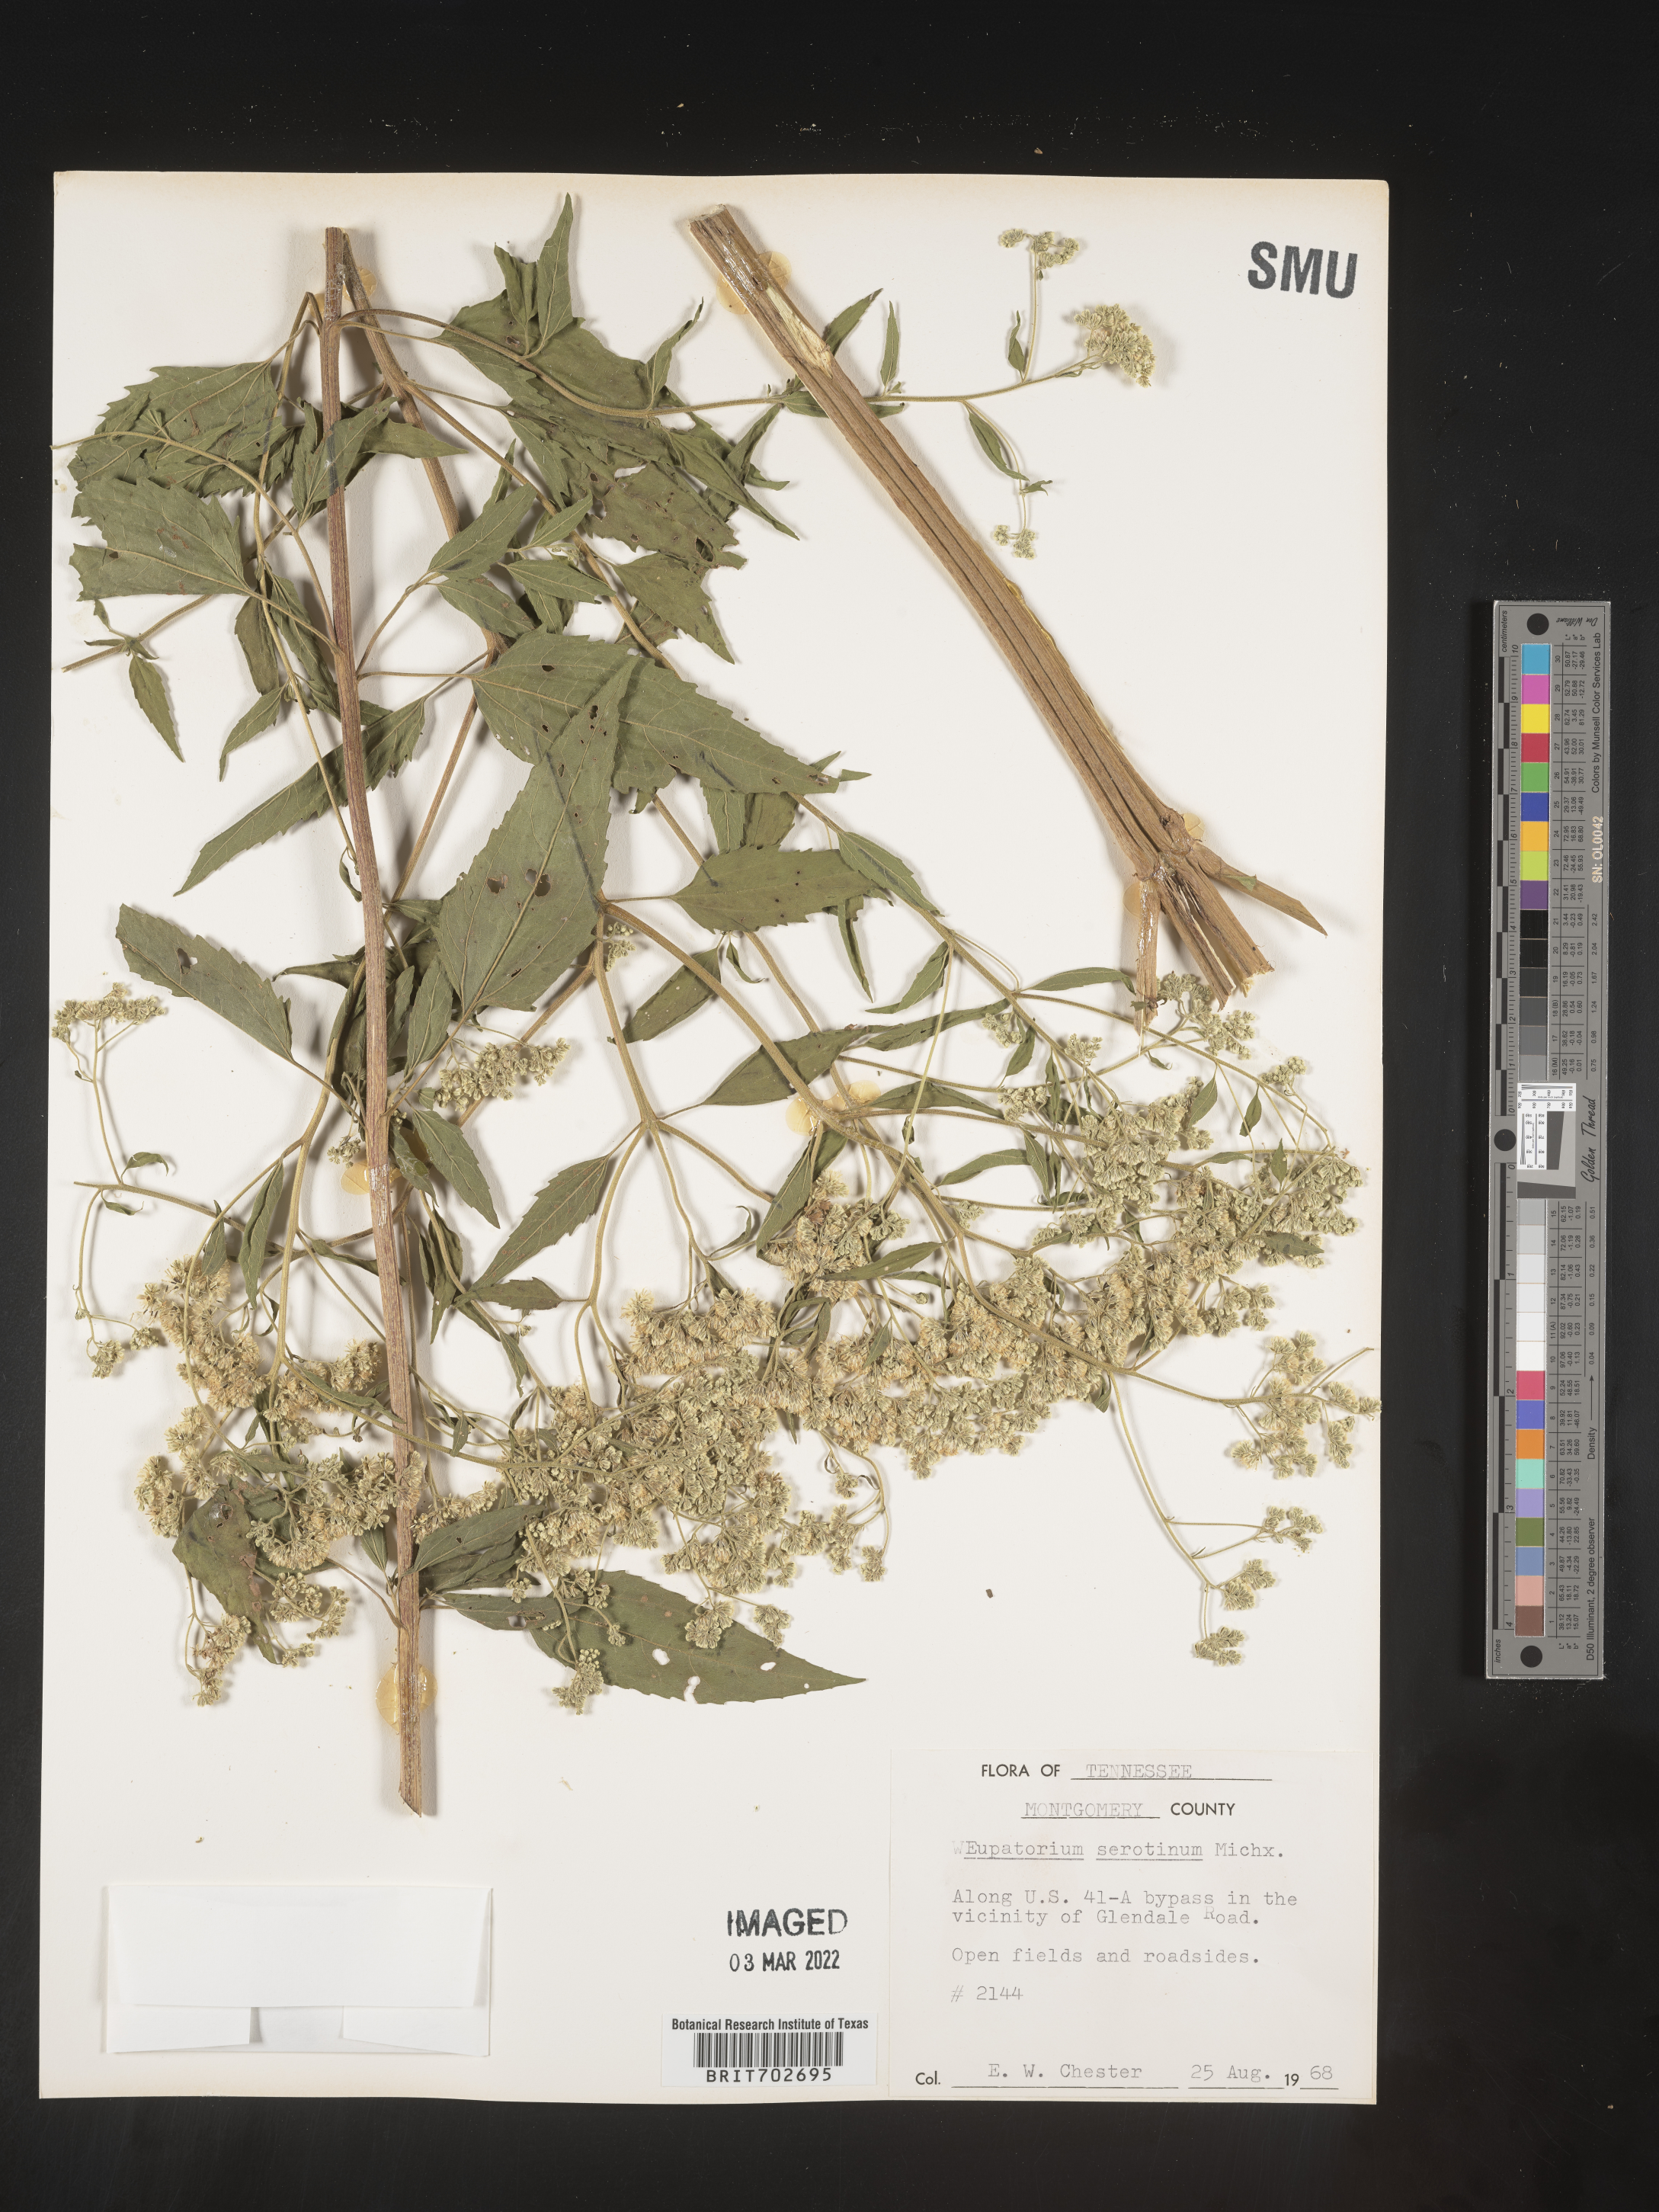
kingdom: Plantae
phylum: Tracheophyta
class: Magnoliopsida
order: Asterales
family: Asteraceae
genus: Eupatorium
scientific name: Eupatorium serotinum
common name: Late boneset
